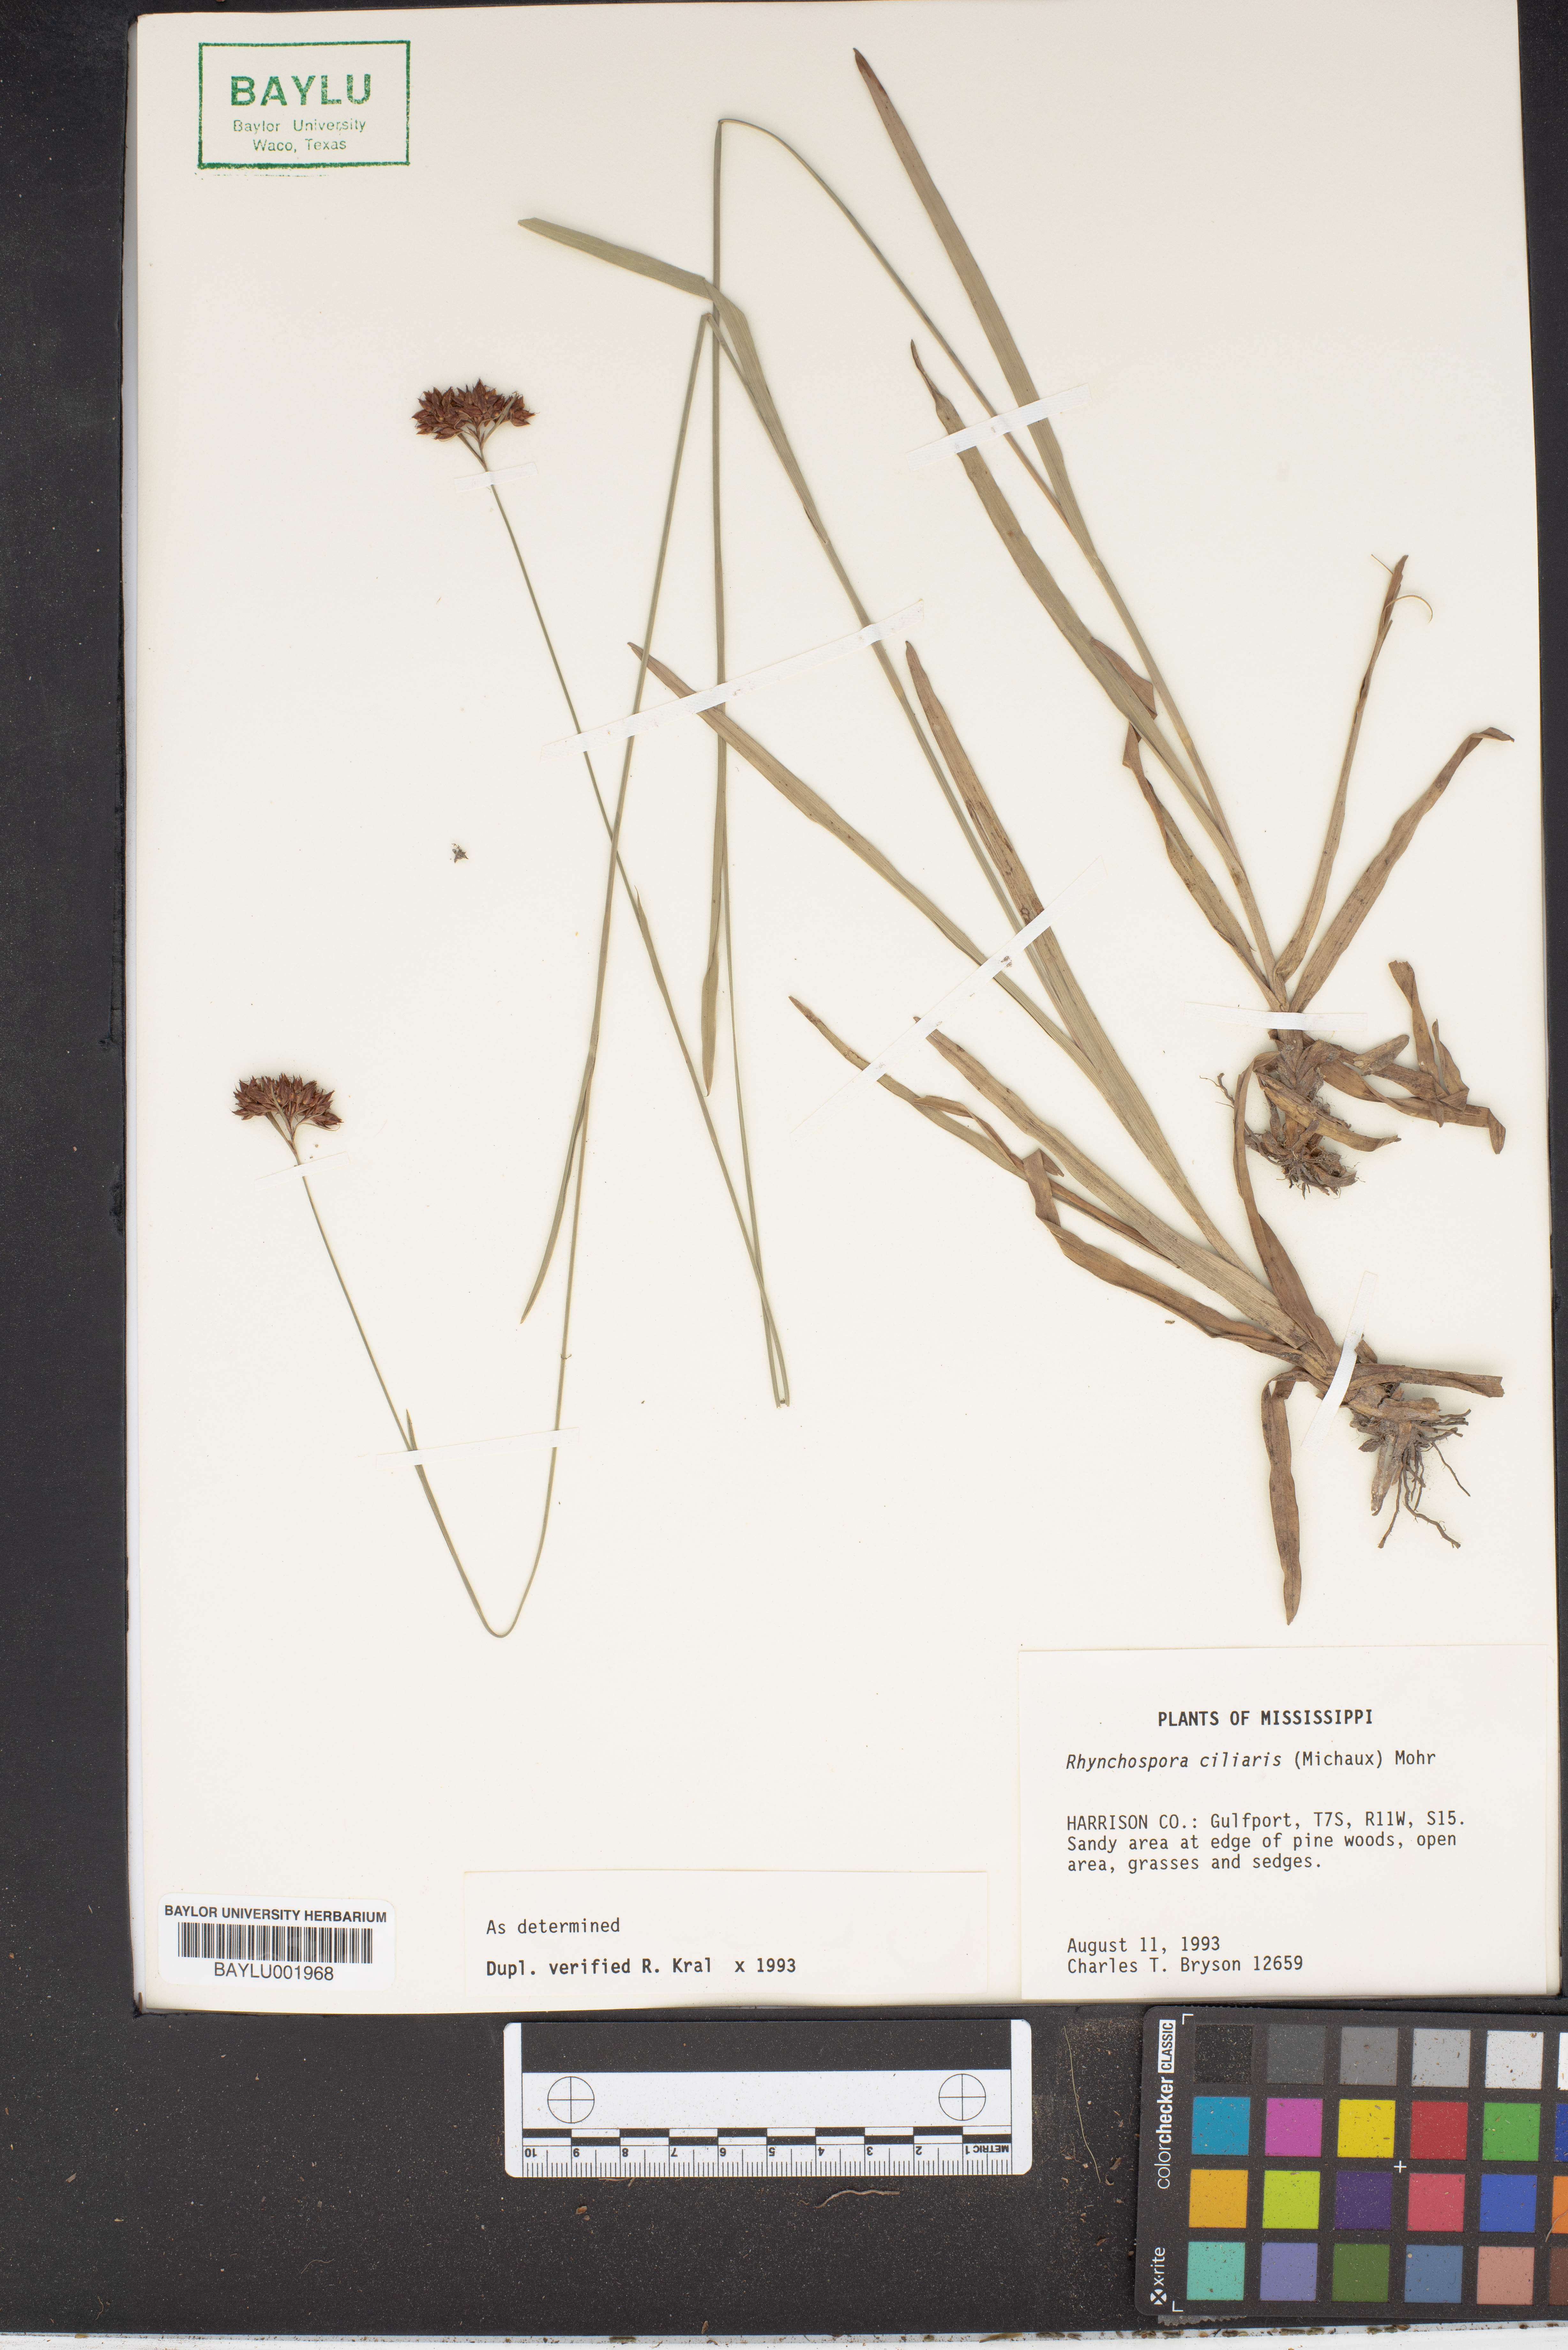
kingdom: Plantae
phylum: Tracheophyta
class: Liliopsida
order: Poales
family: Cyperaceae
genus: Rhynchospora
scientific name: Rhynchospora ciliaris
